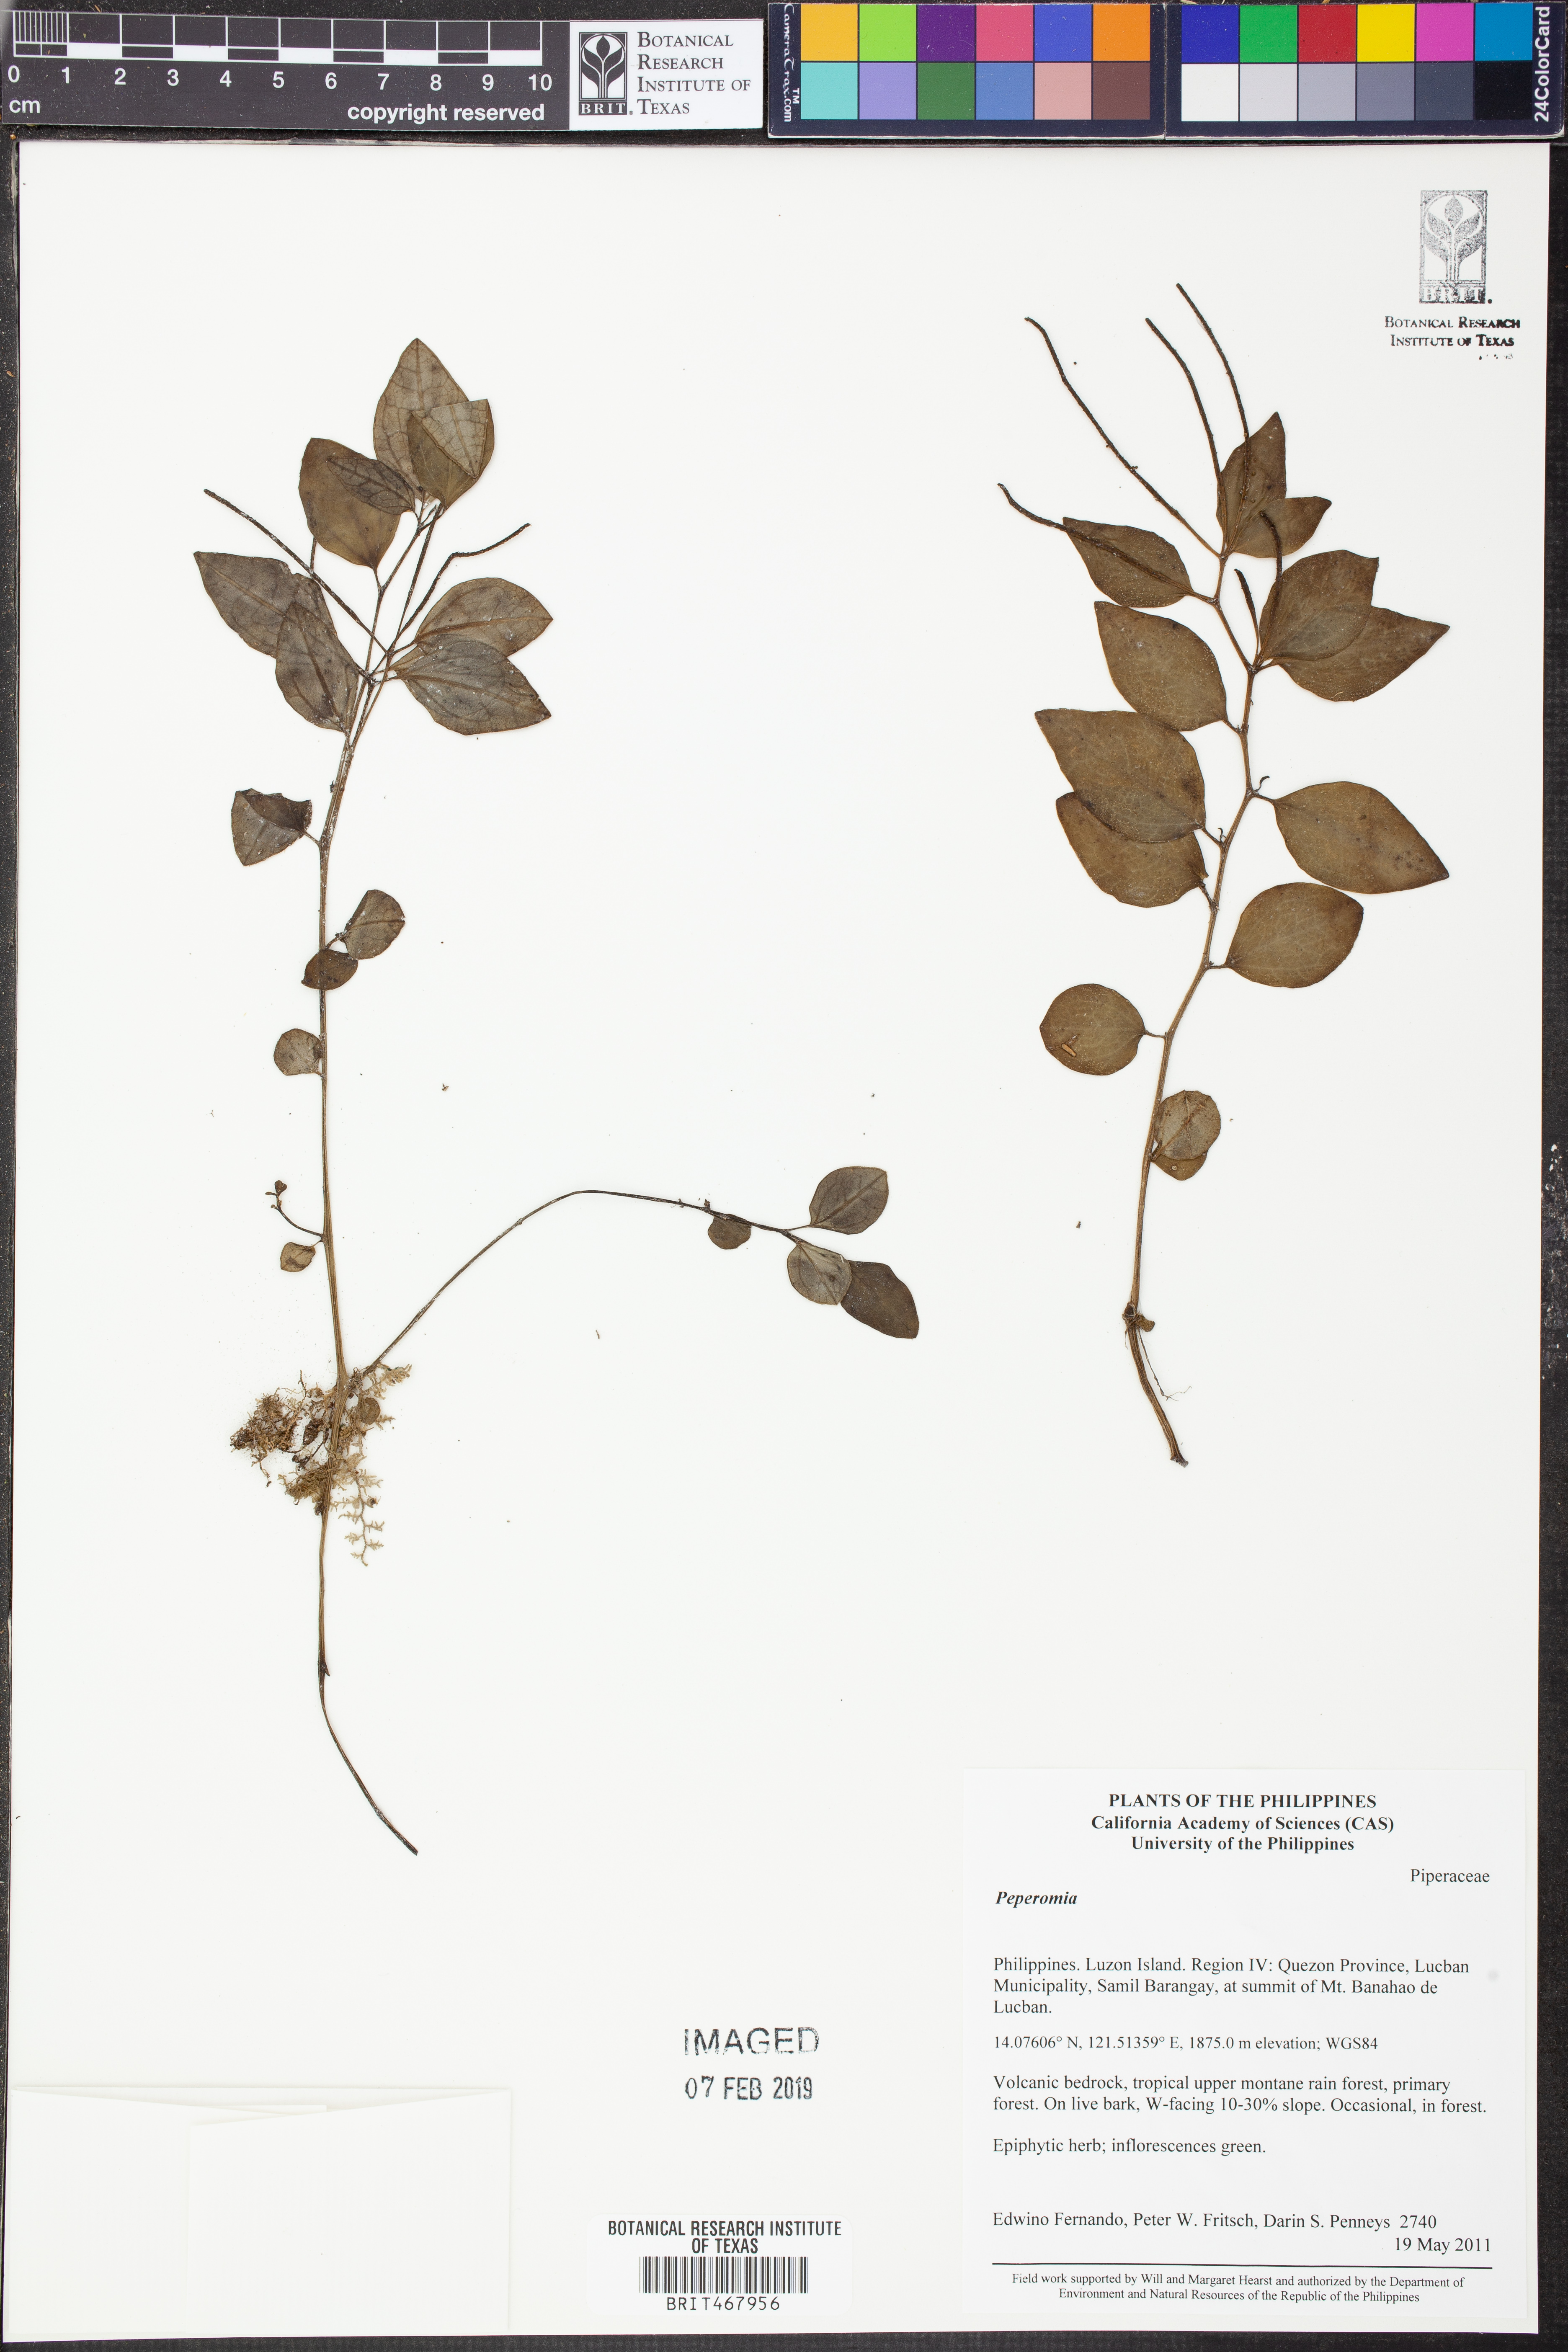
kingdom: Plantae
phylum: Tracheophyta
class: Magnoliopsida
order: Piperales
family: Piperaceae
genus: Peperomia
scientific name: Peperomia
